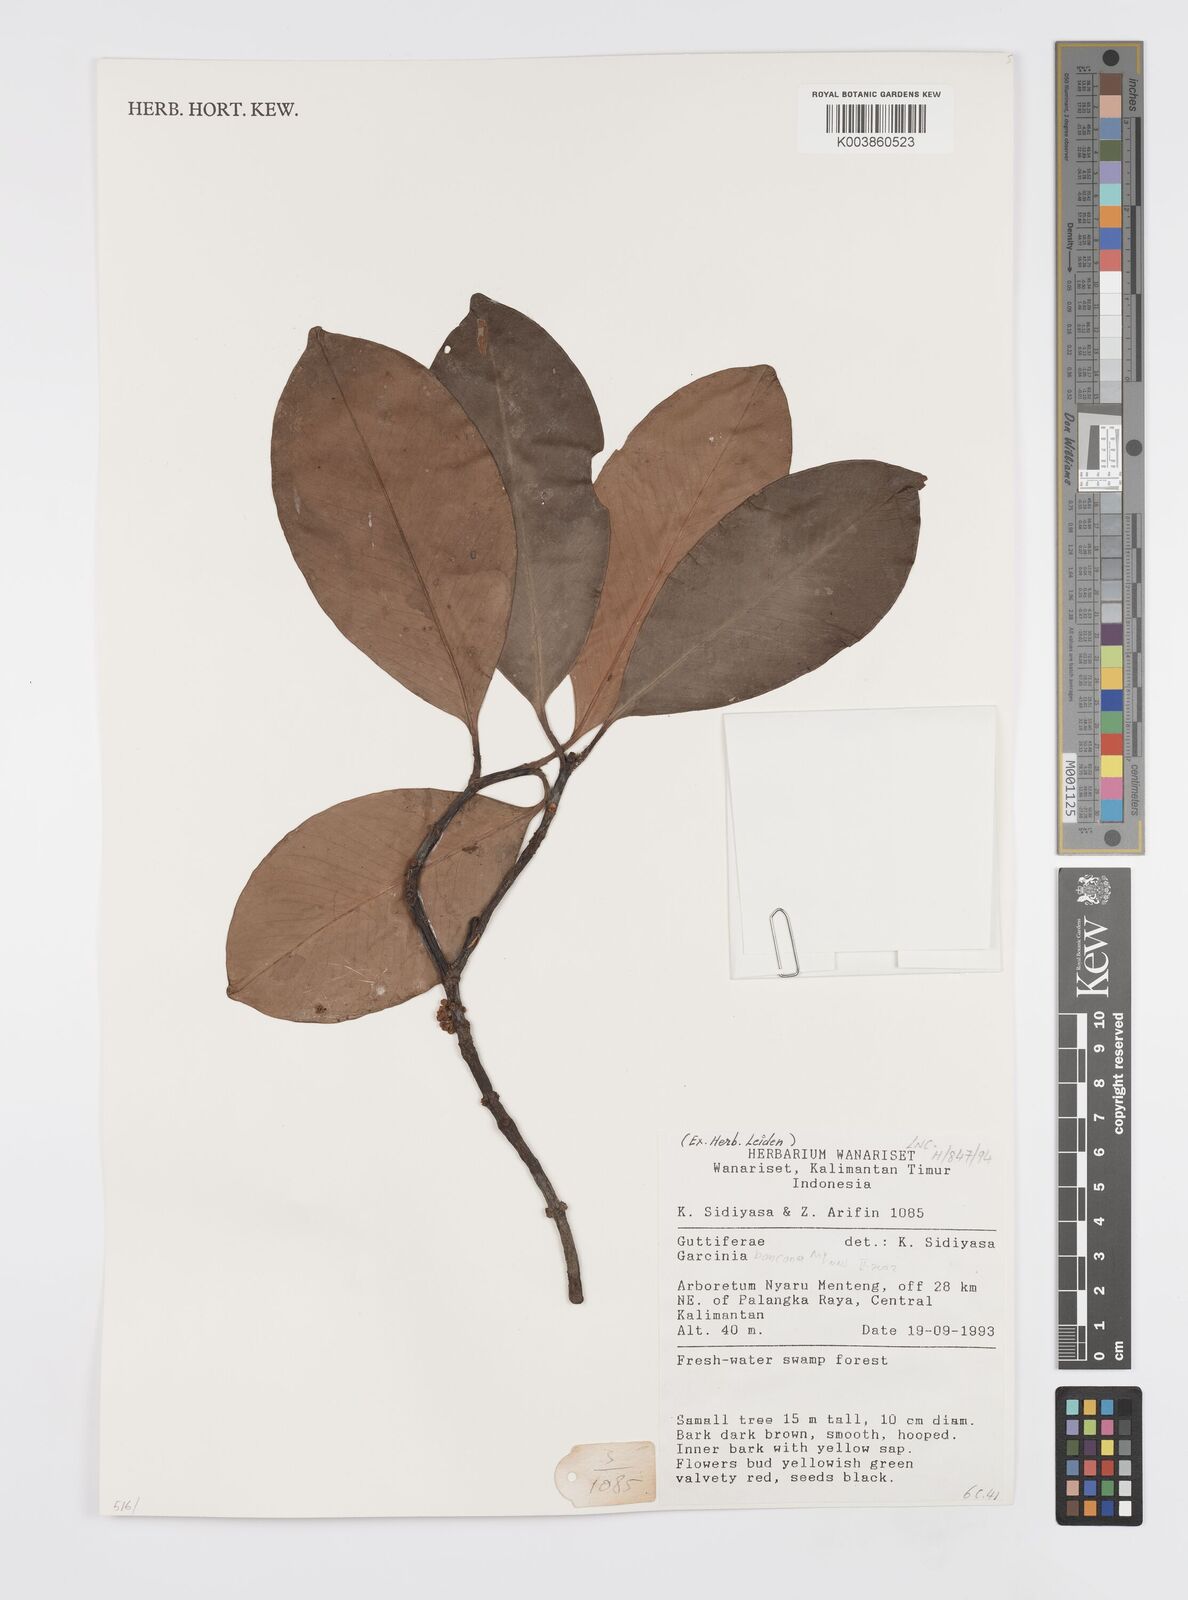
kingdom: Plantae
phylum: Tracheophyta
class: Magnoliopsida
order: Malpighiales
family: Clusiaceae
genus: Garcinia
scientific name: Garcinia bancana
